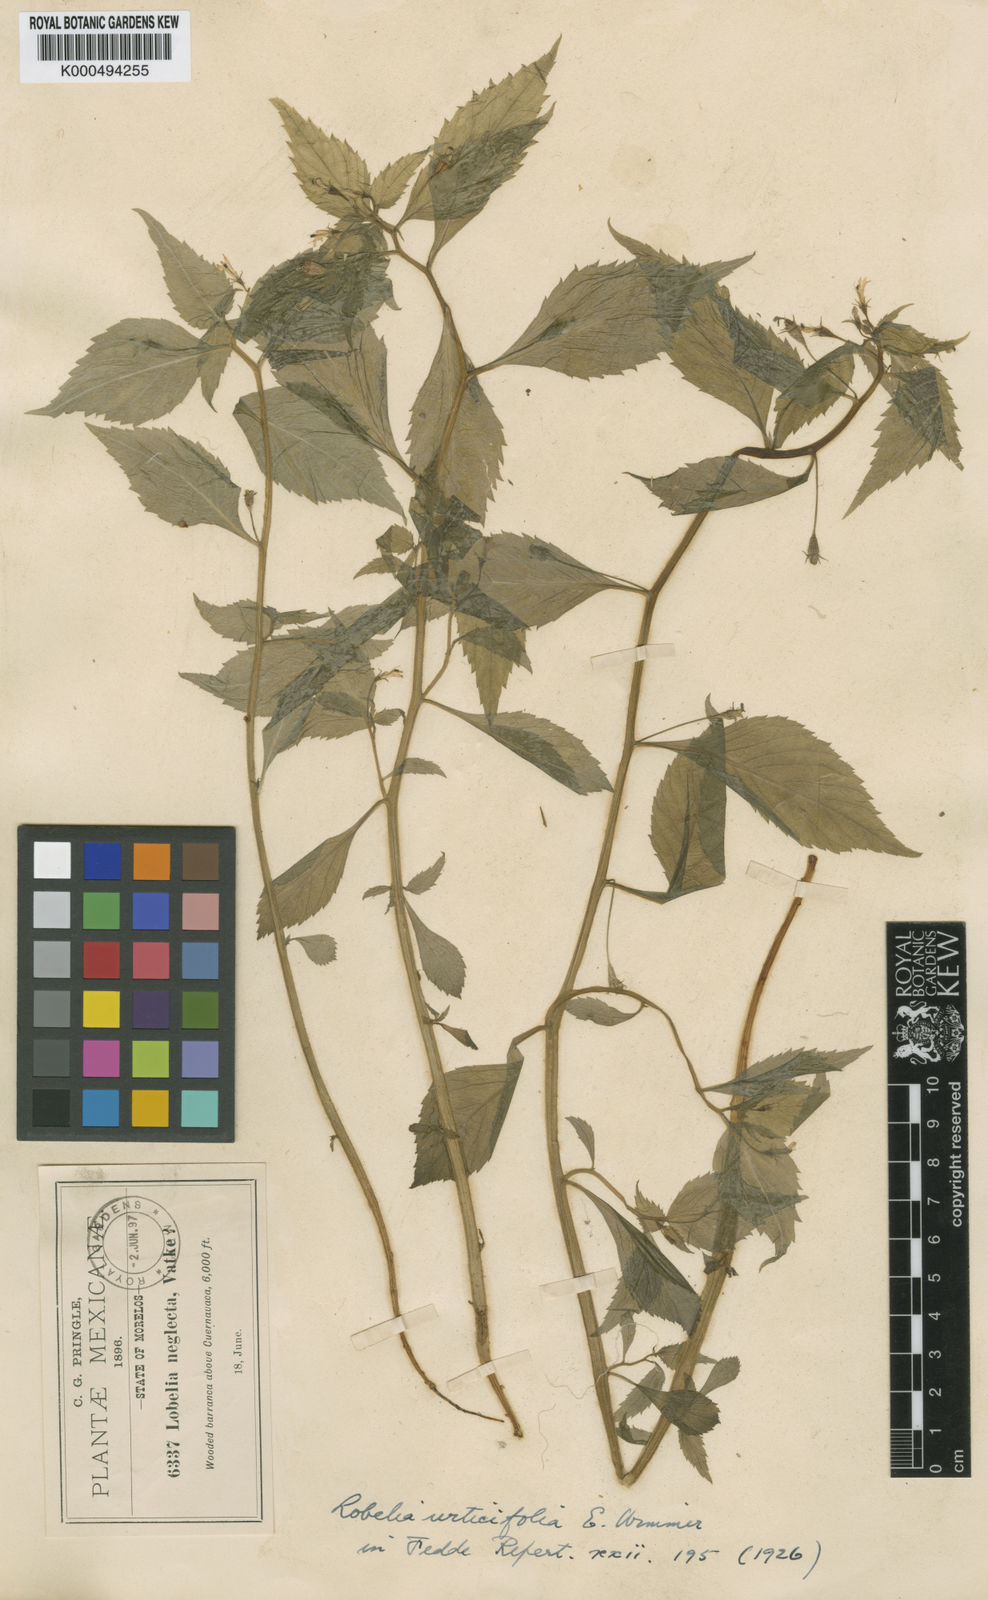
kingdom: Plantae
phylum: Tracheophyta
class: Magnoliopsida
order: Asterales
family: Campanulaceae
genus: Lobelia
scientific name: Lobelia longicaulis
